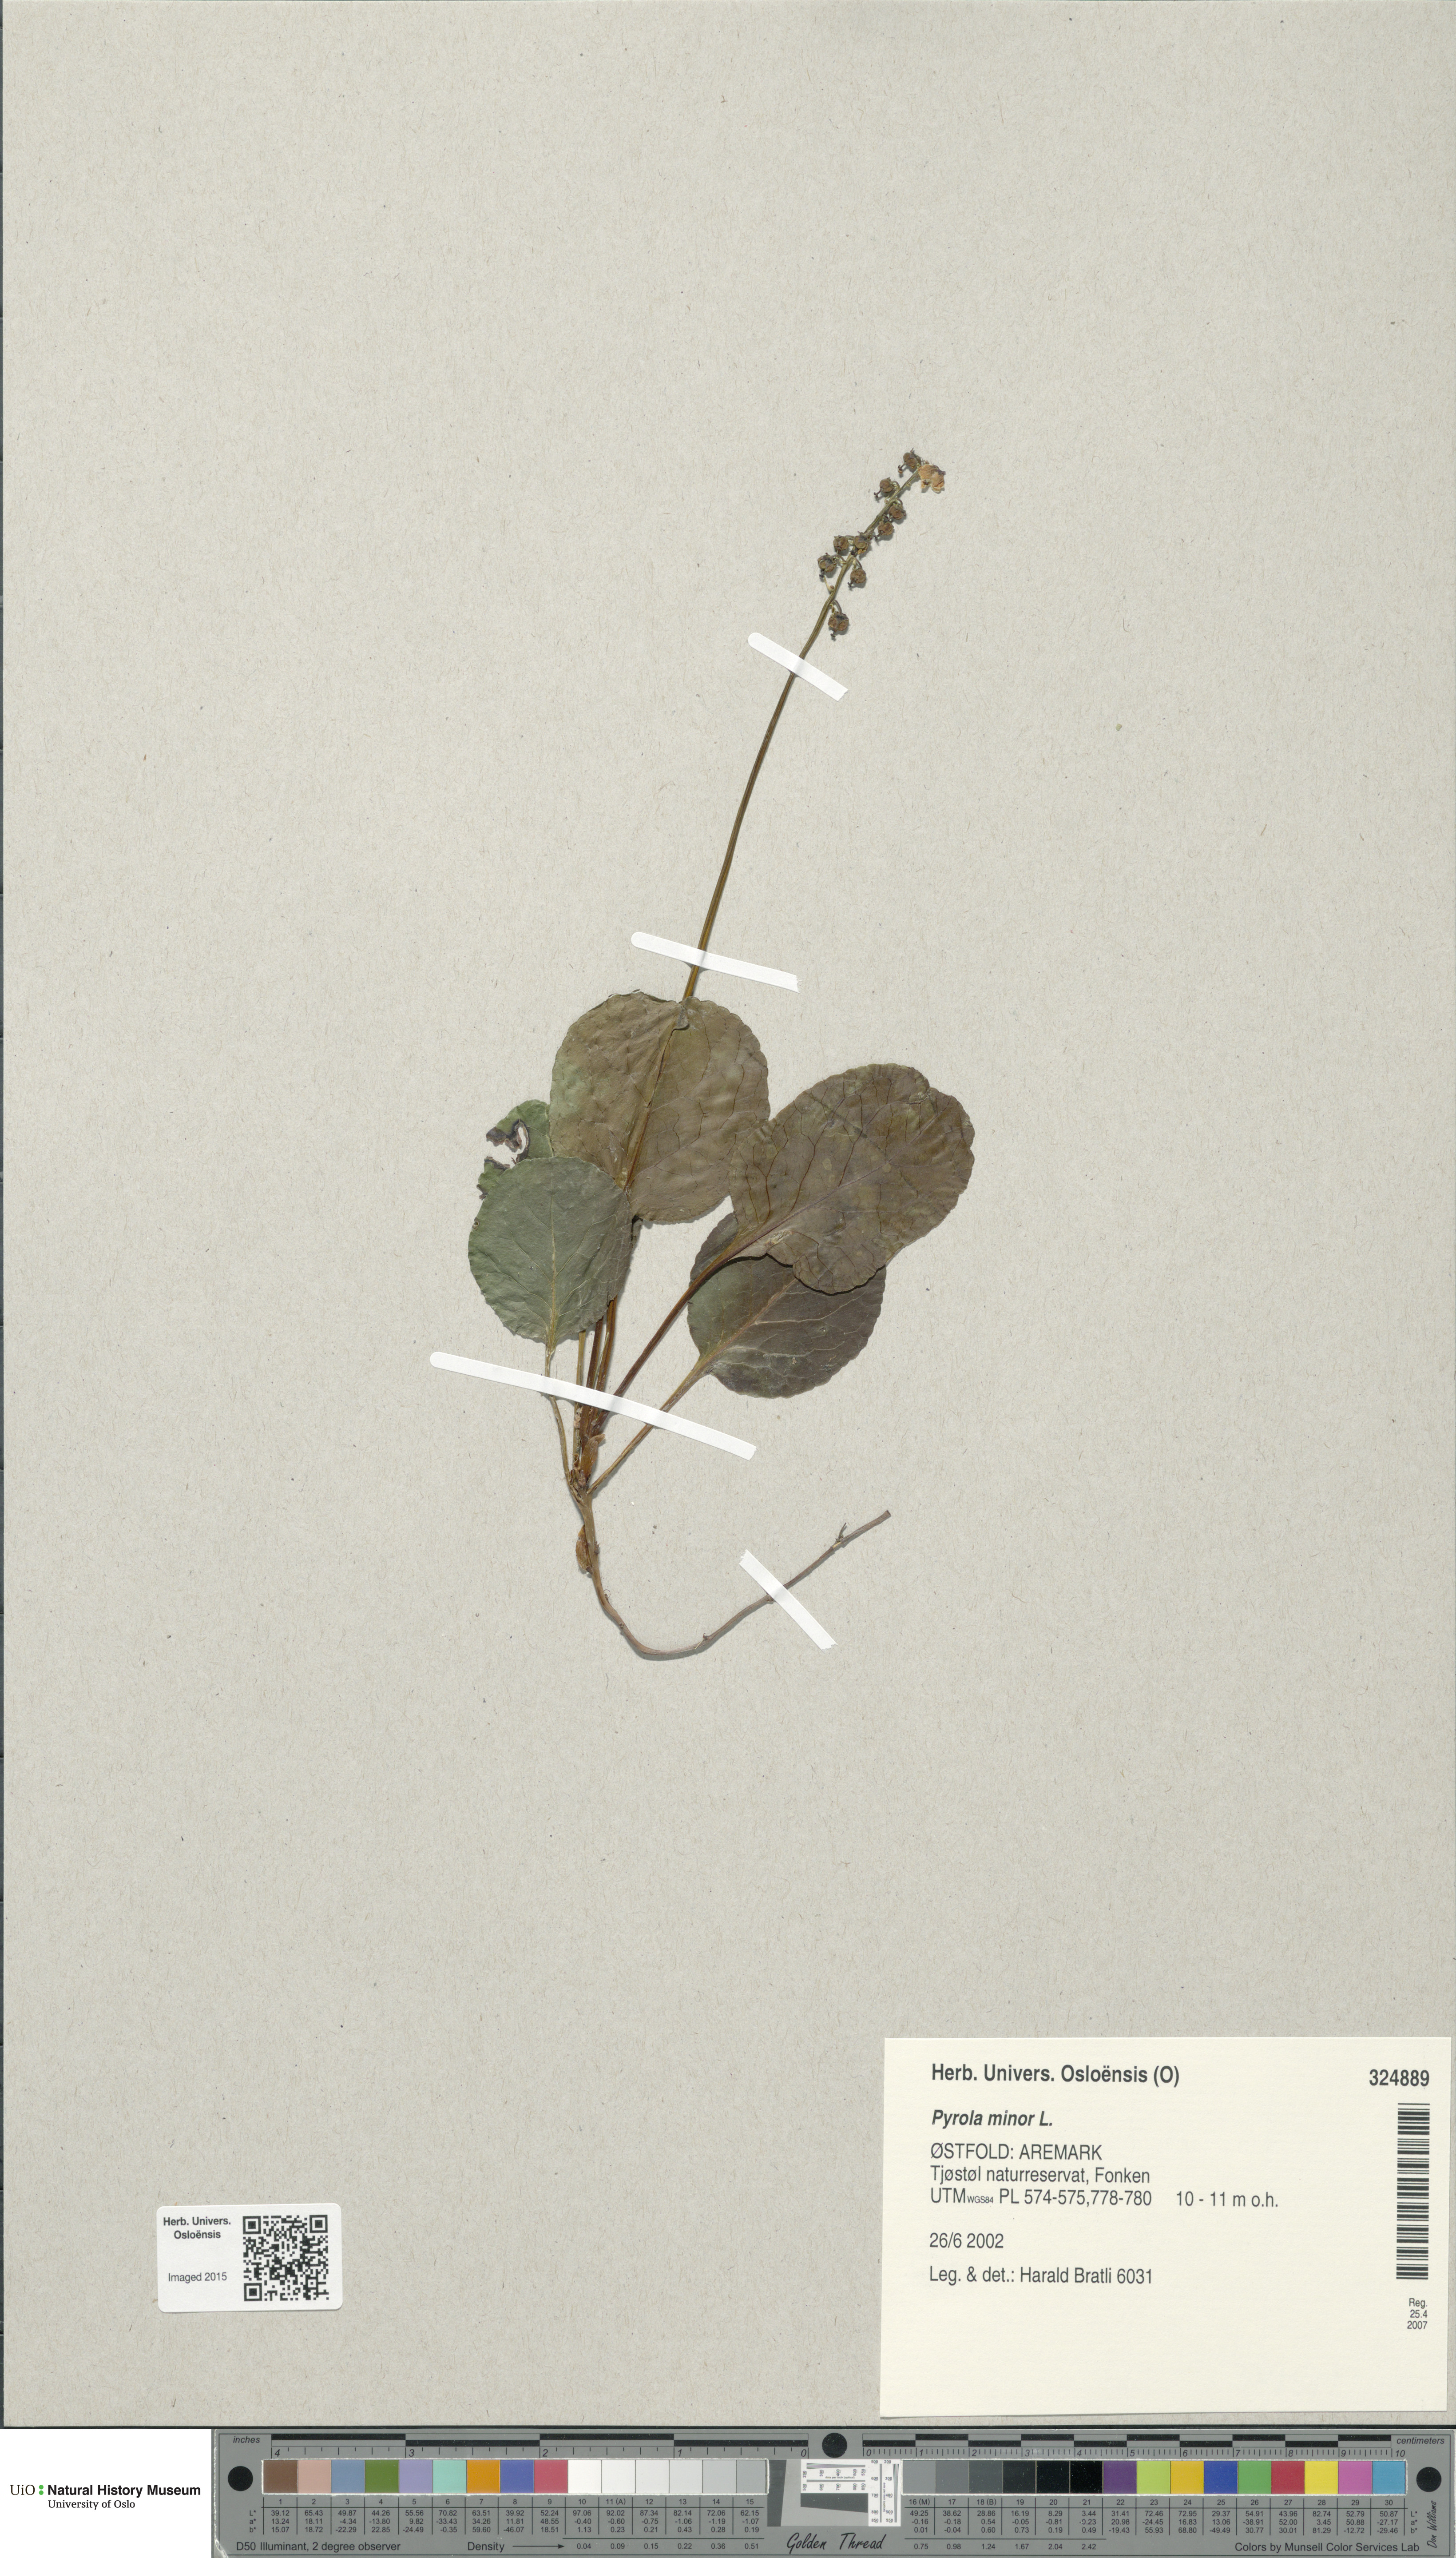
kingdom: Plantae
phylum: Tracheophyta
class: Magnoliopsida
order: Ericales
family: Ericaceae
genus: Pyrola
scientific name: Pyrola minor
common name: Common wintergreen
